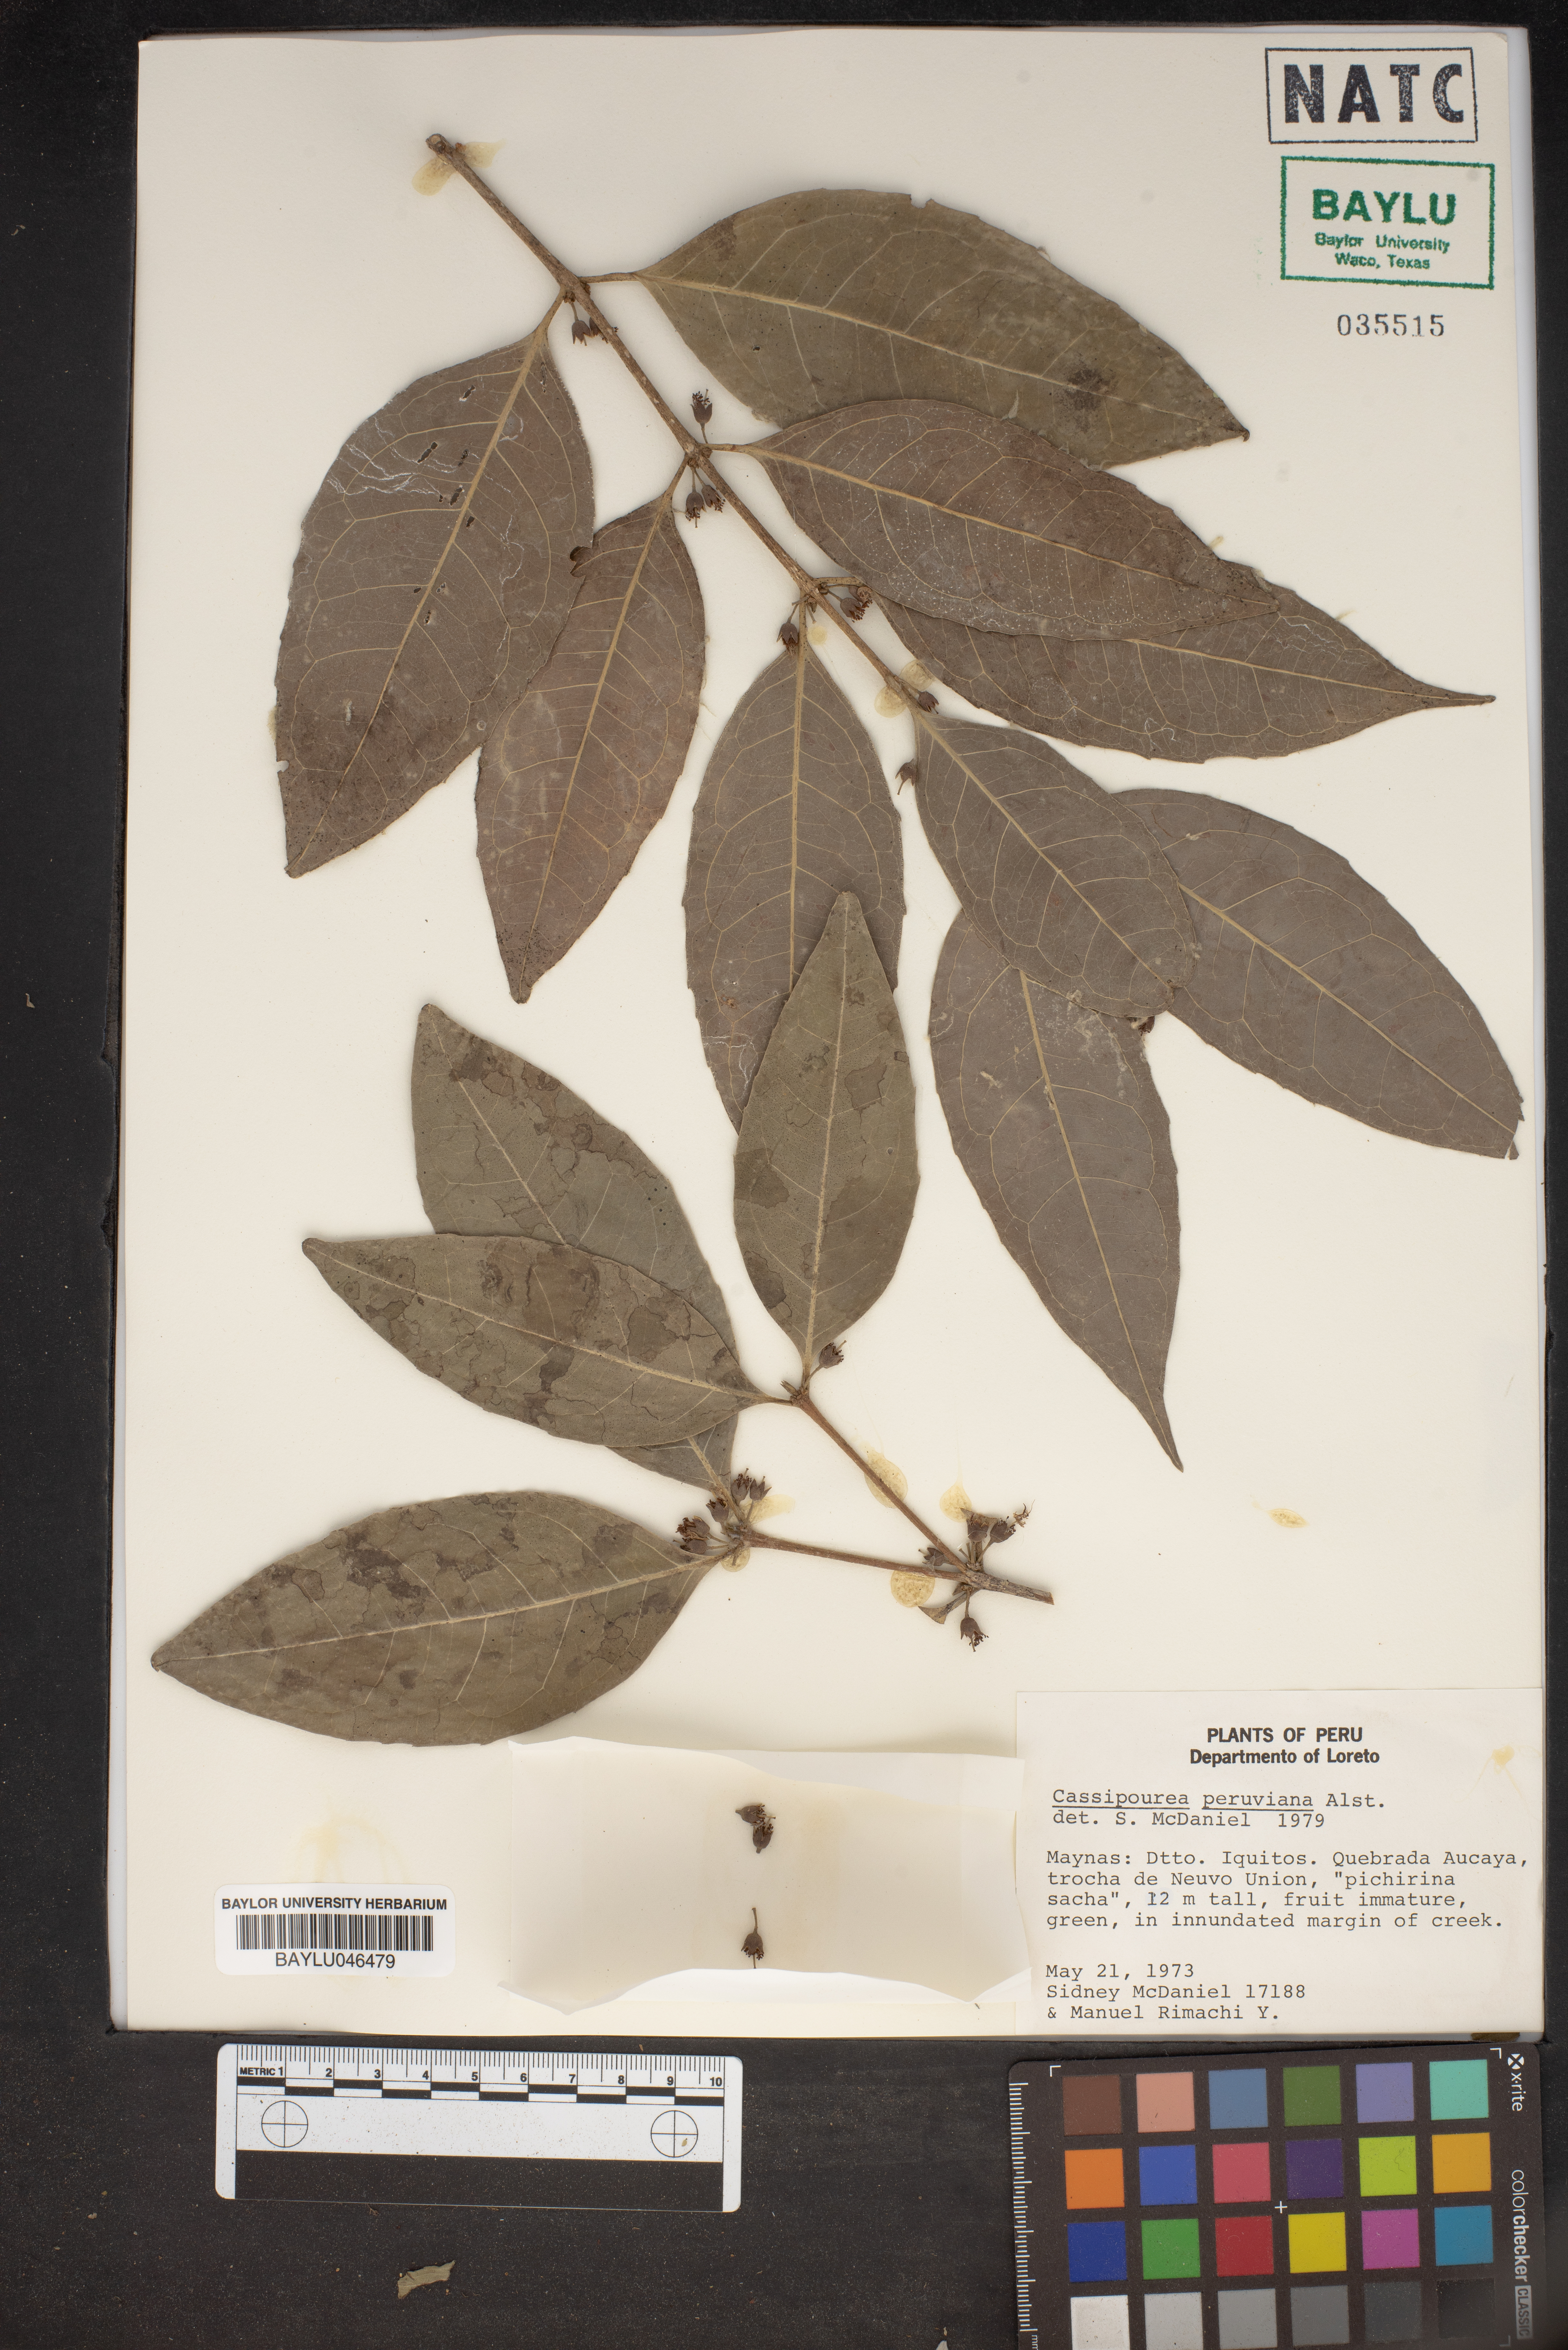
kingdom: Plantae
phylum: Tracheophyta
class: Magnoliopsida
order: Malpighiales
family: Rhizophoraceae
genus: Cassipourea
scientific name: Cassipourea peruviana
